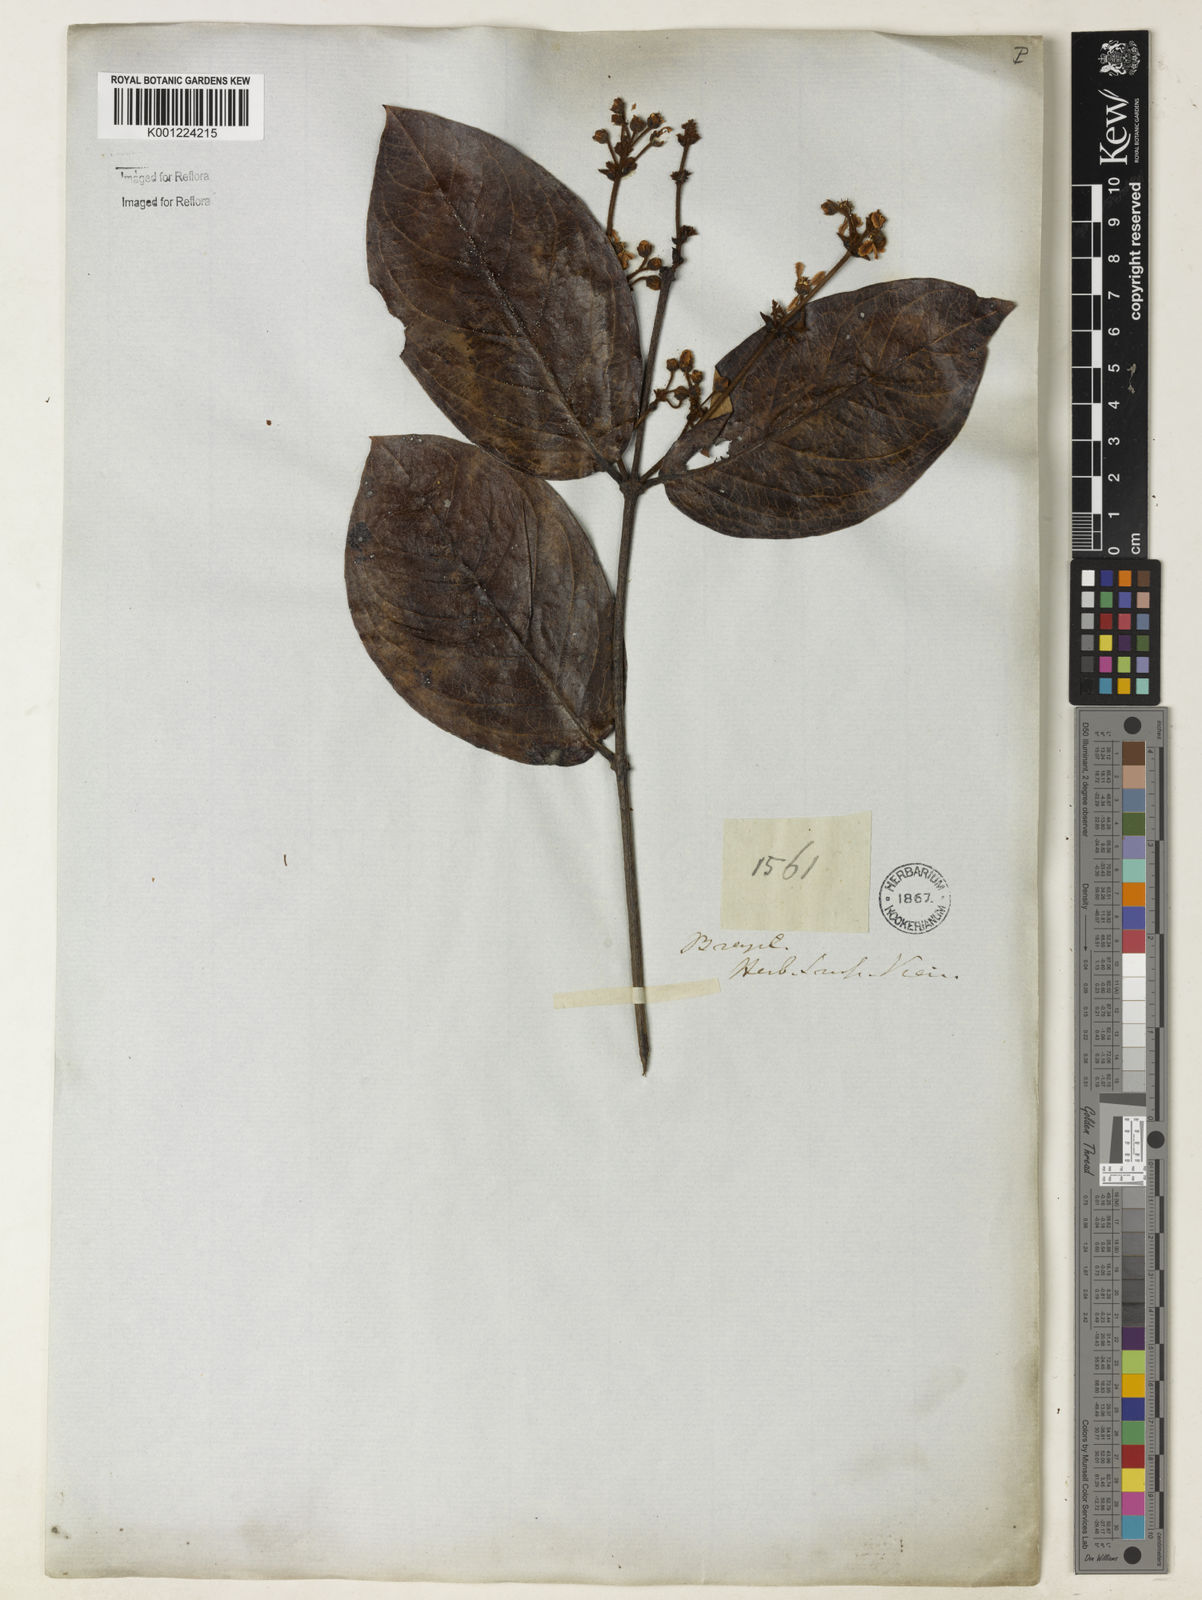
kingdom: Plantae
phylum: Tracheophyta
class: Magnoliopsida
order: Malpighiales
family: Malpighiaceae
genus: Heteropterys
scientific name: Heteropterys tomentosa
